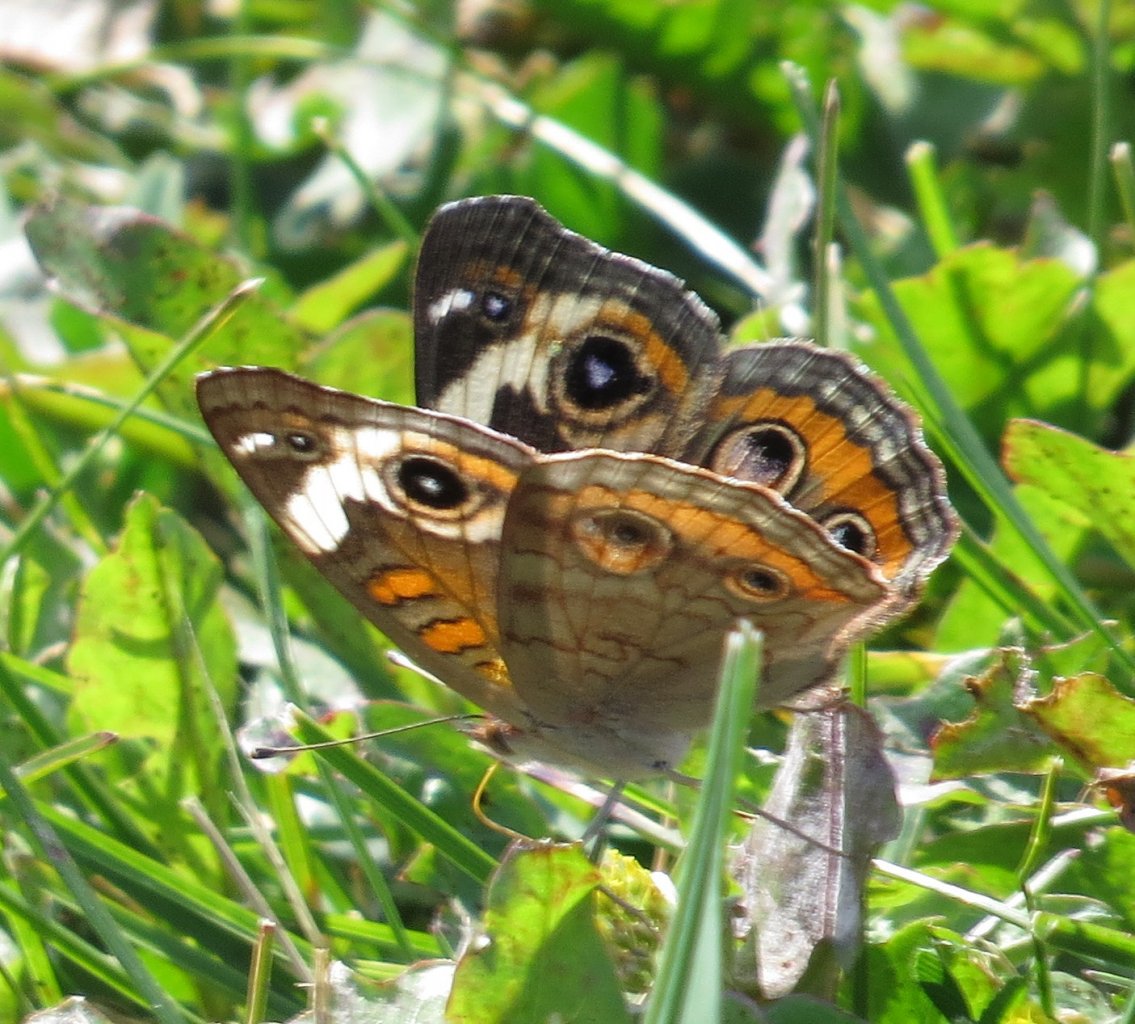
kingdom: Animalia
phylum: Arthropoda
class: Insecta
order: Lepidoptera
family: Nymphalidae
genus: Junonia
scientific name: Junonia coenia
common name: Common Buckeye
